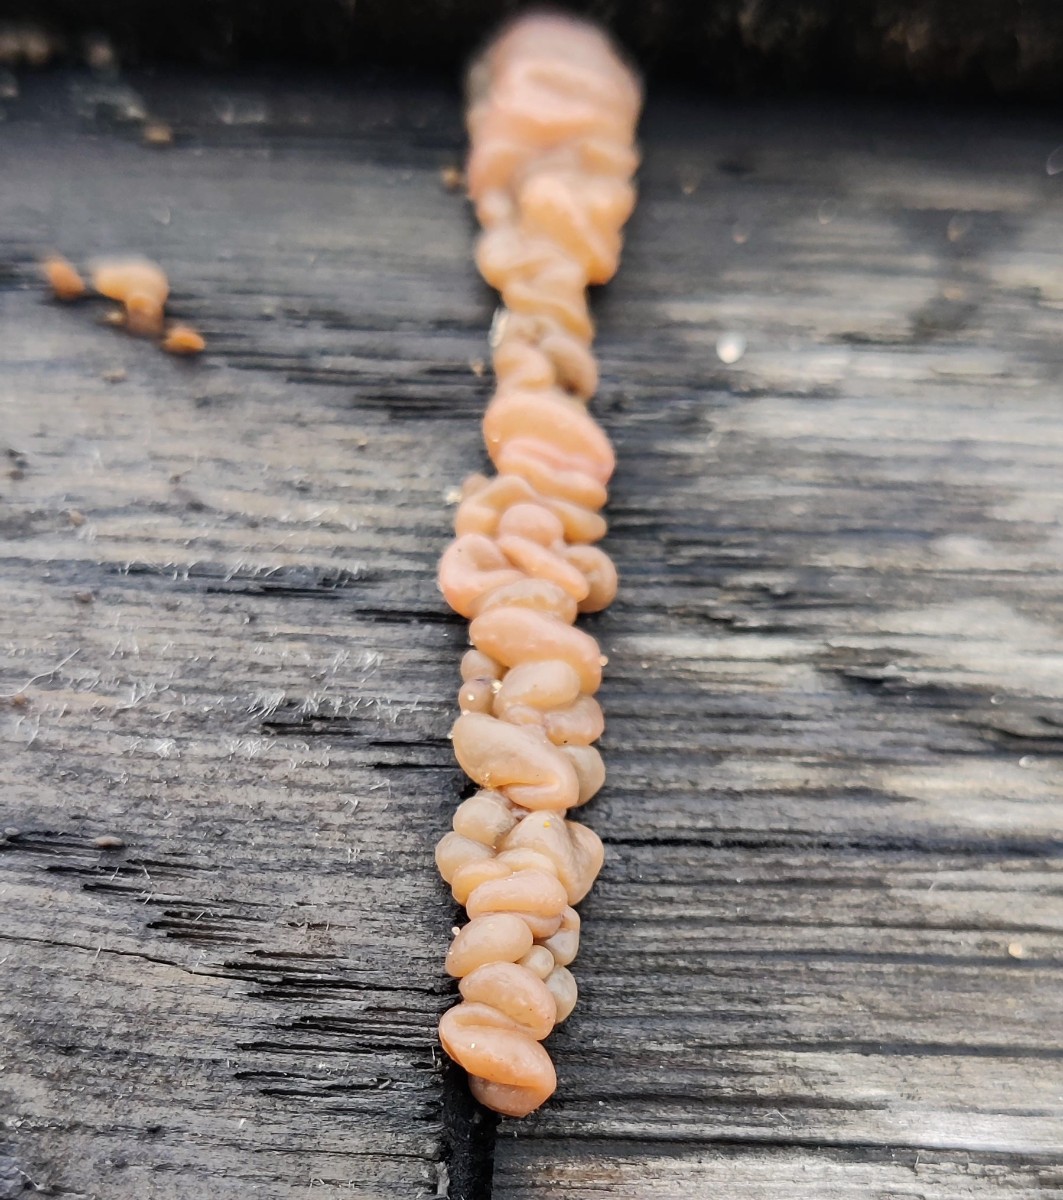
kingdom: Fungi
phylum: Basidiomycota
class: Dacrymycetes
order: Dacrymycetales
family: Dacrymycetaceae
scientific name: Dacrymycetaceae
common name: tåresvampfamilien
